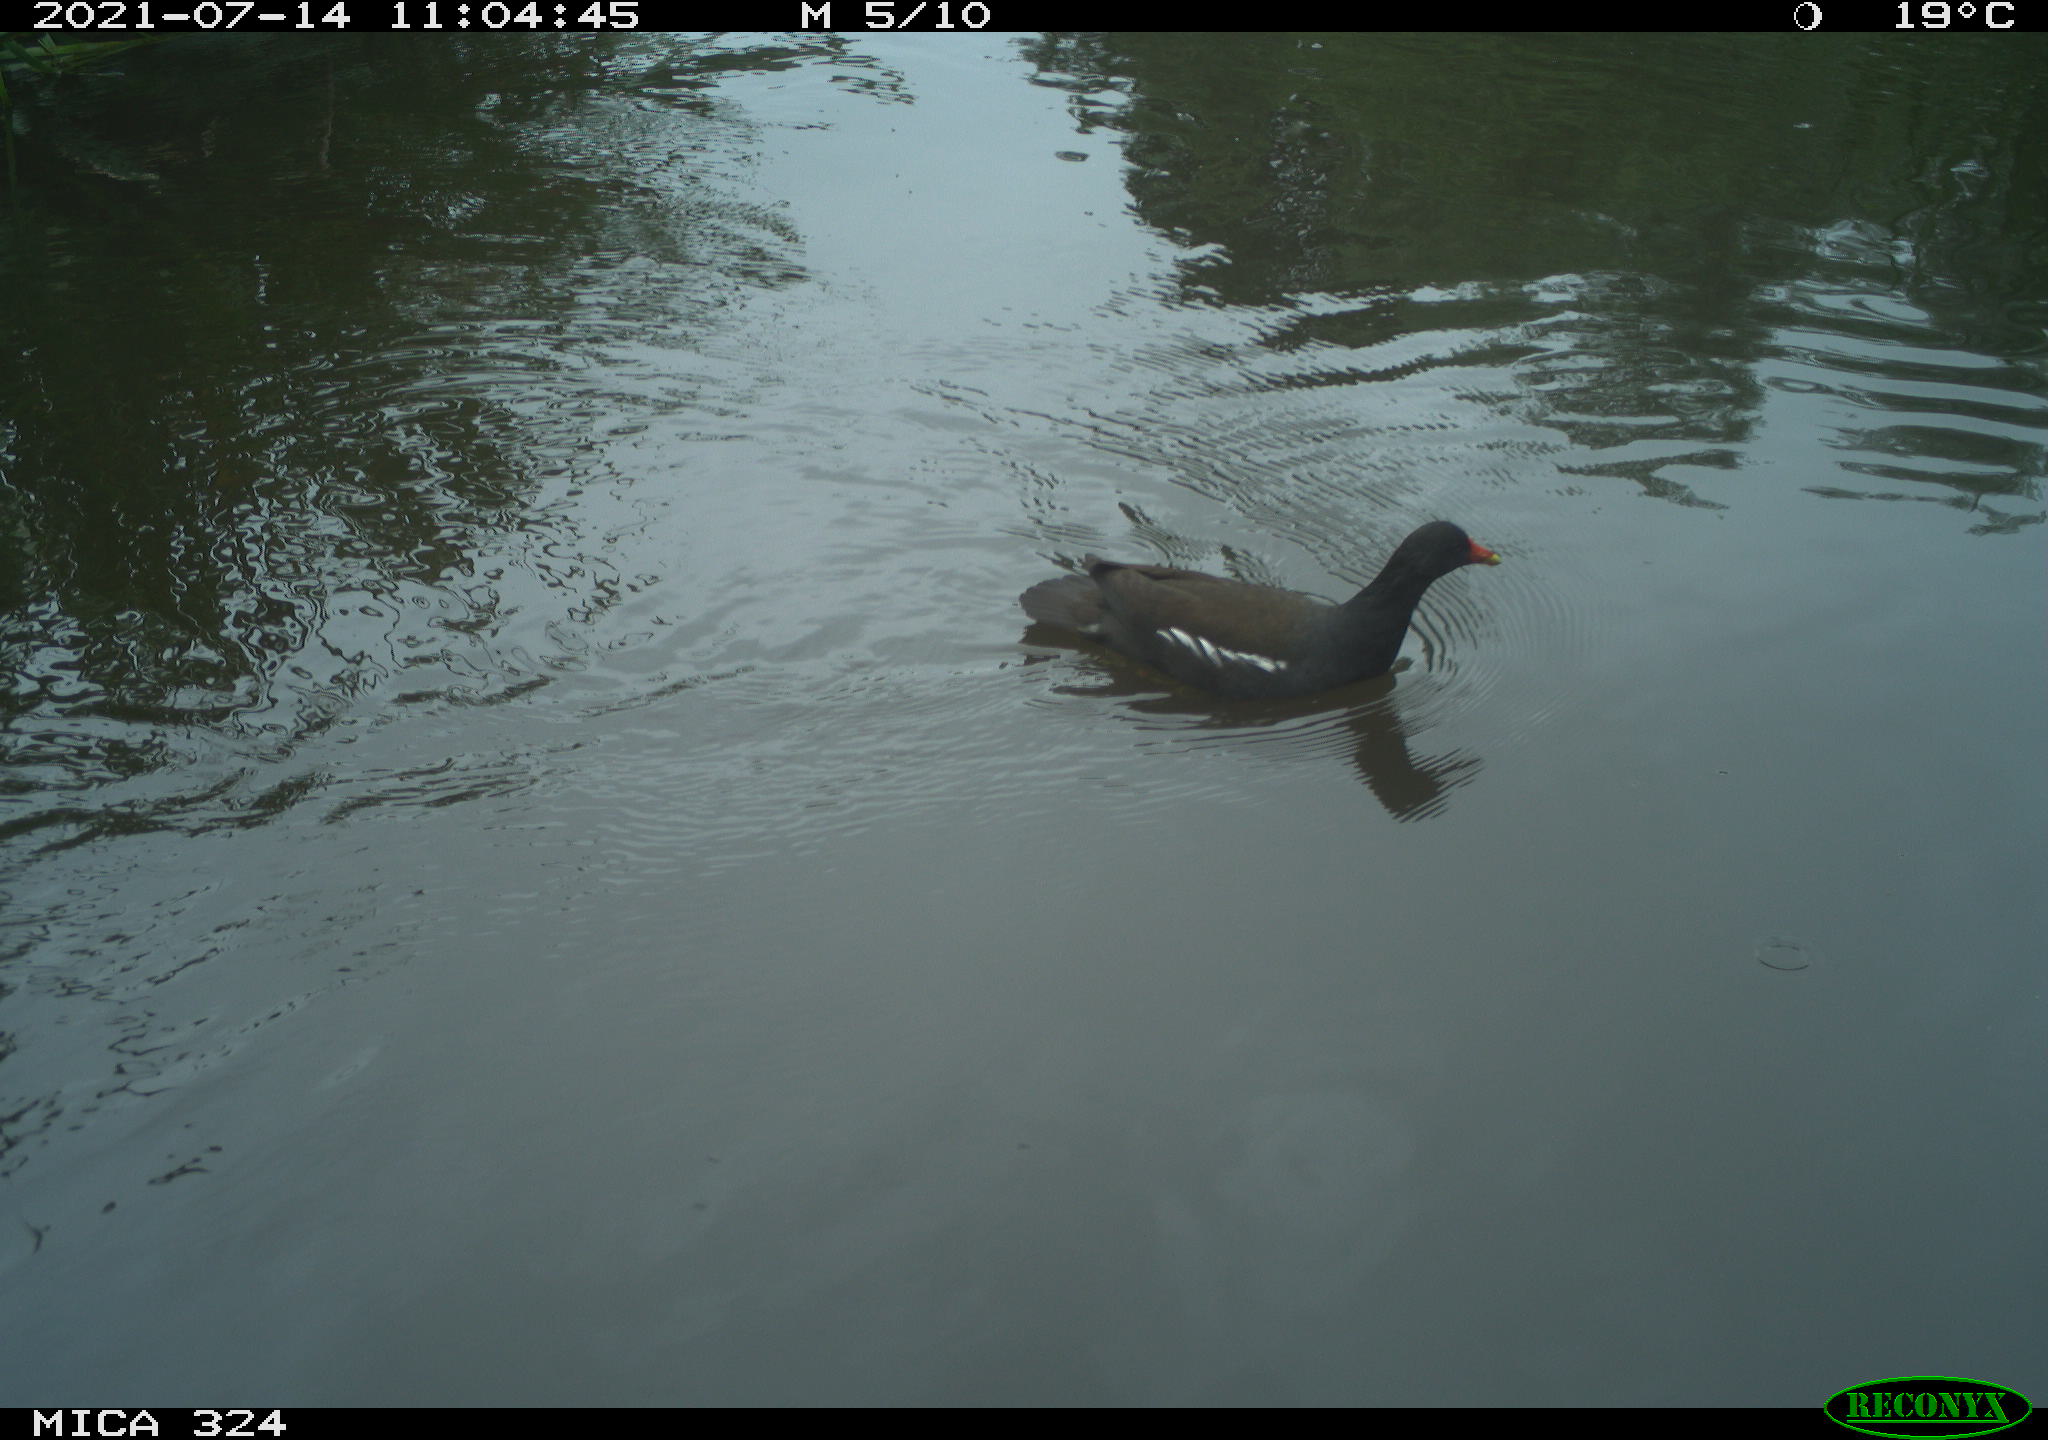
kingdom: Animalia
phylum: Chordata
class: Aves
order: Gruiformes
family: Rallidae
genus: Gallinula
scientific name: Gallinula chloropus
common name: Common moorhen
